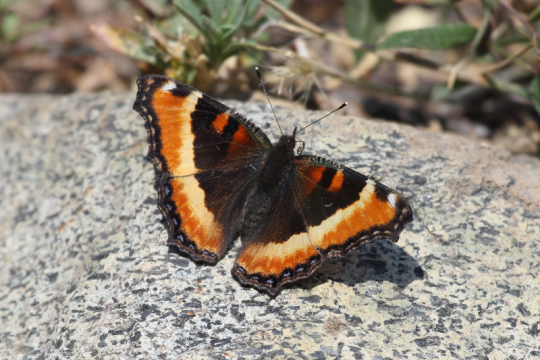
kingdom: Animalia
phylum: Arthropoda
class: Insecta
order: Lepidoptera
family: Nymphalidae
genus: Aglais
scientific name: Aglais milberti
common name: Milbert's Tortoiseshell
